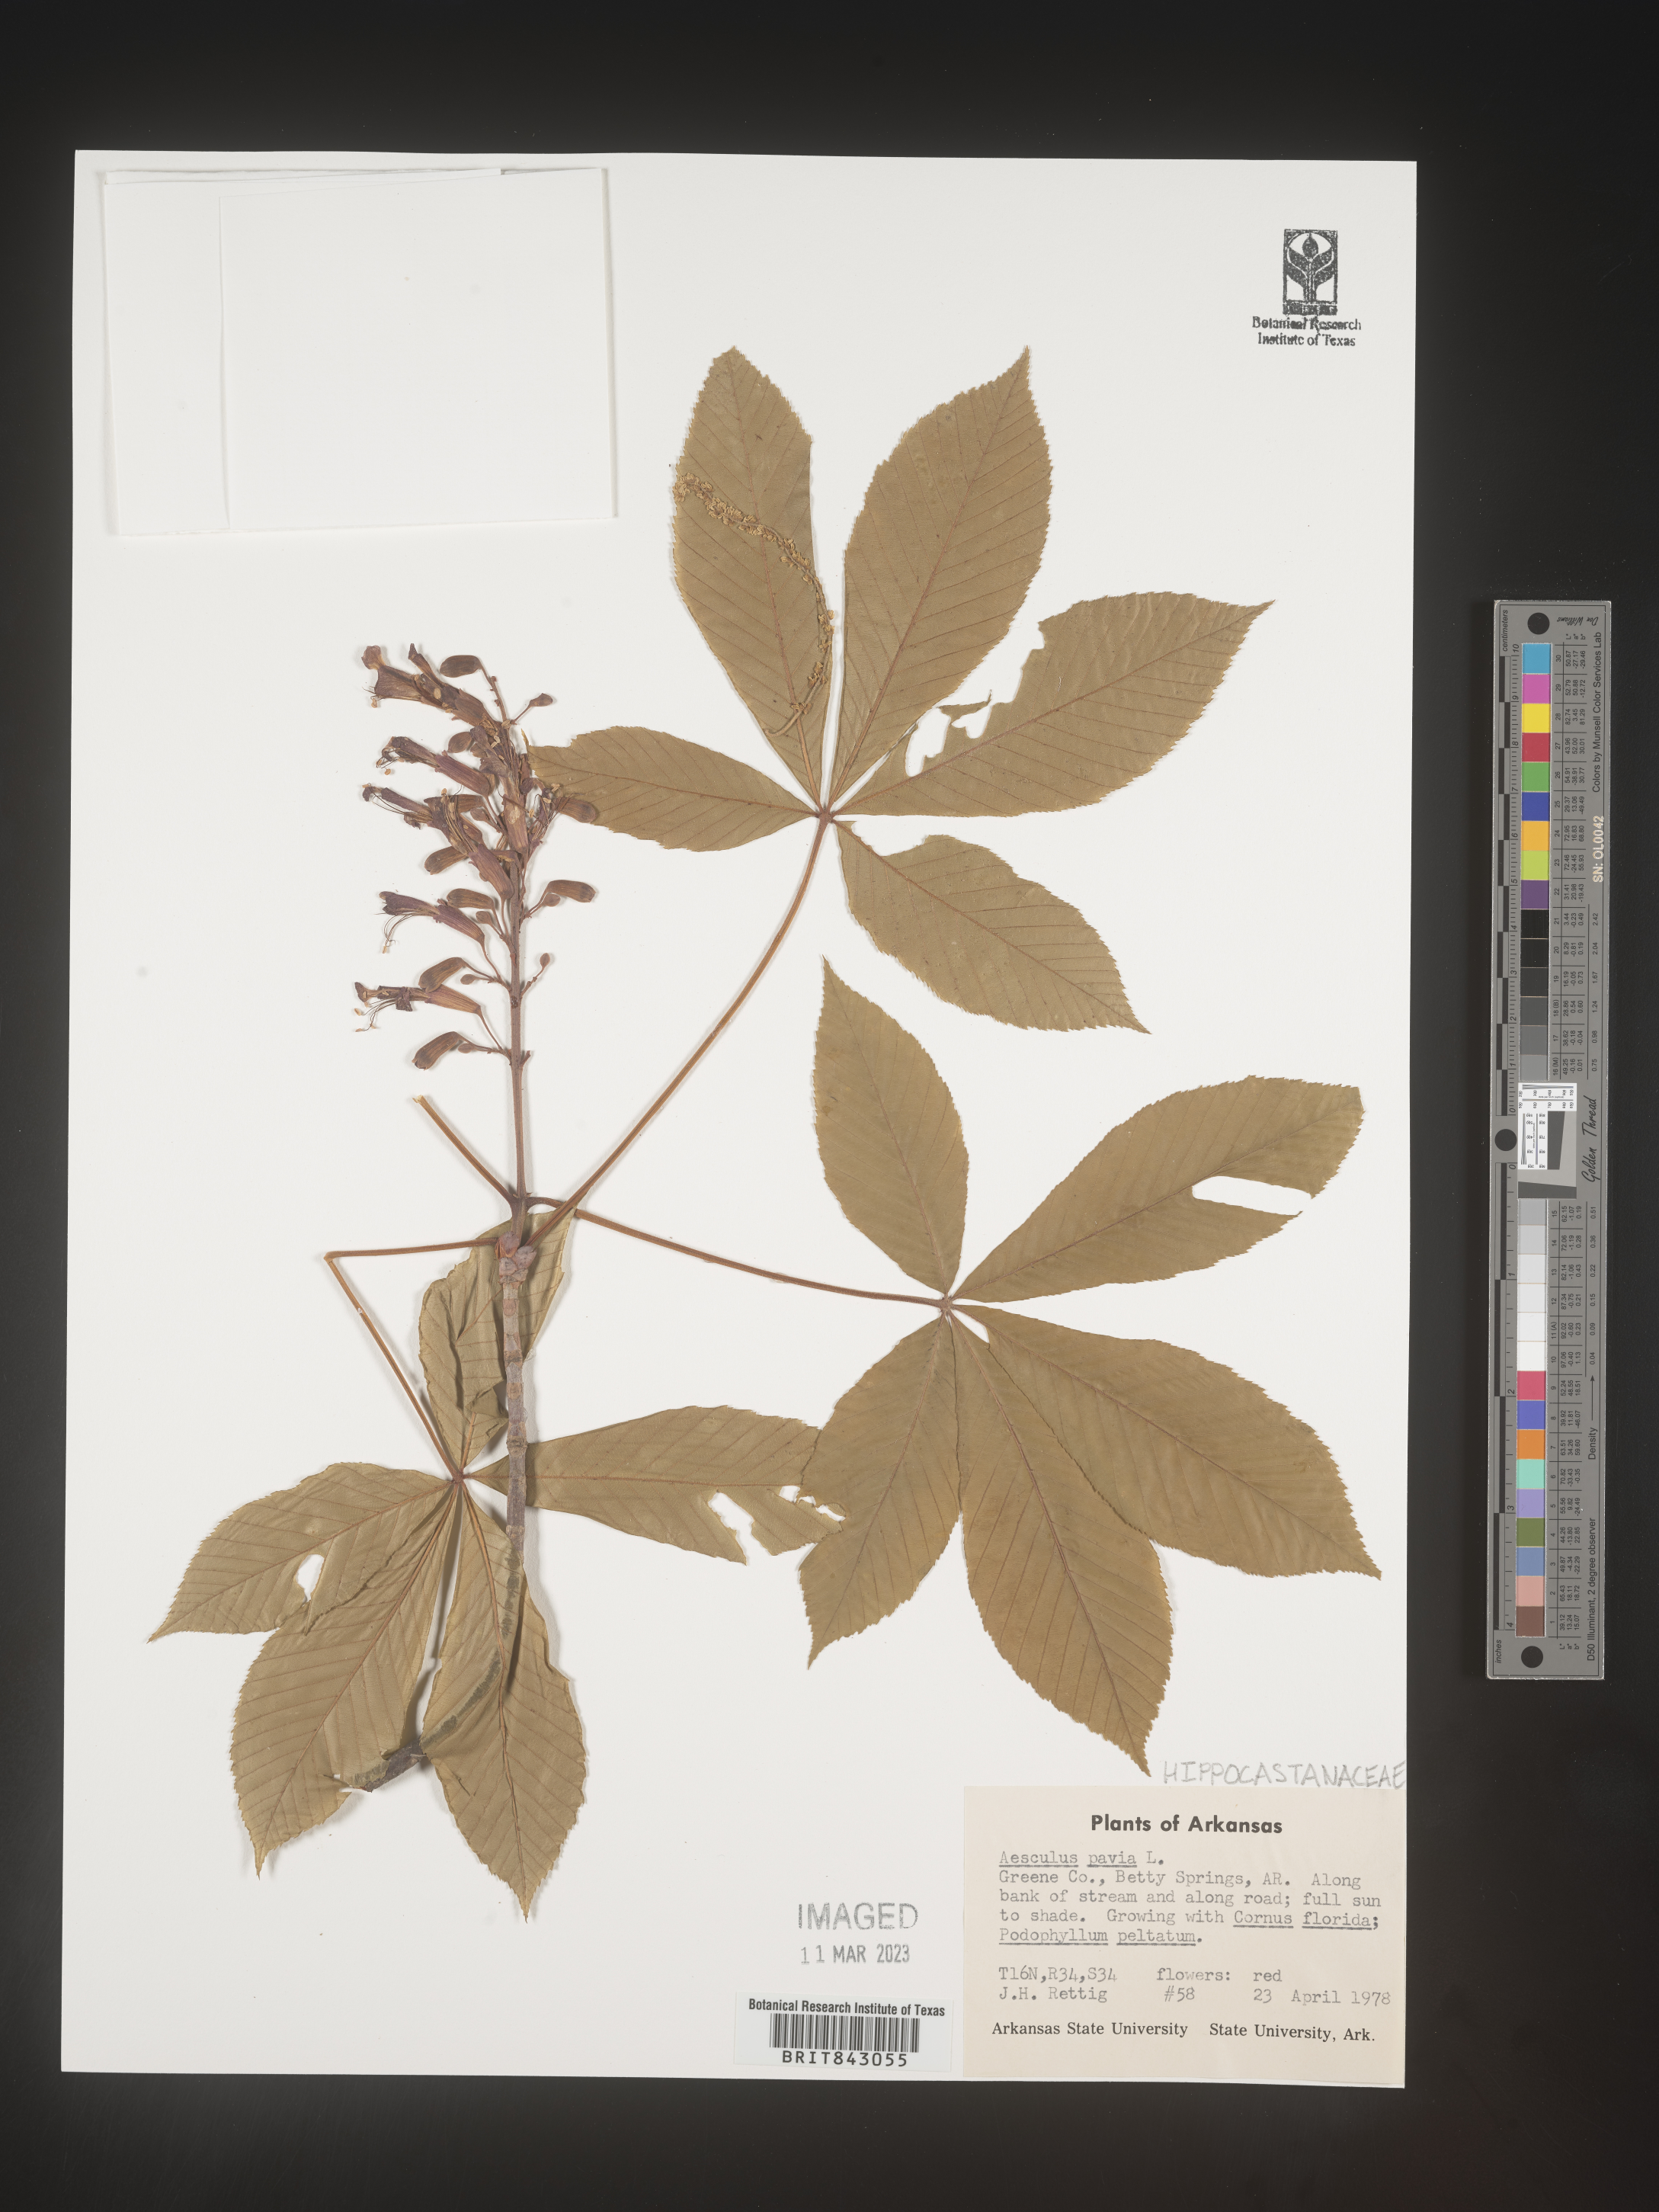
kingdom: Plantae
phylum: Tracheophyta
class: Magnoliopsida
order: Sapindales
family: Sapindaceae
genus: Aesculus
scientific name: Aesculus pavia
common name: Red buckeye
